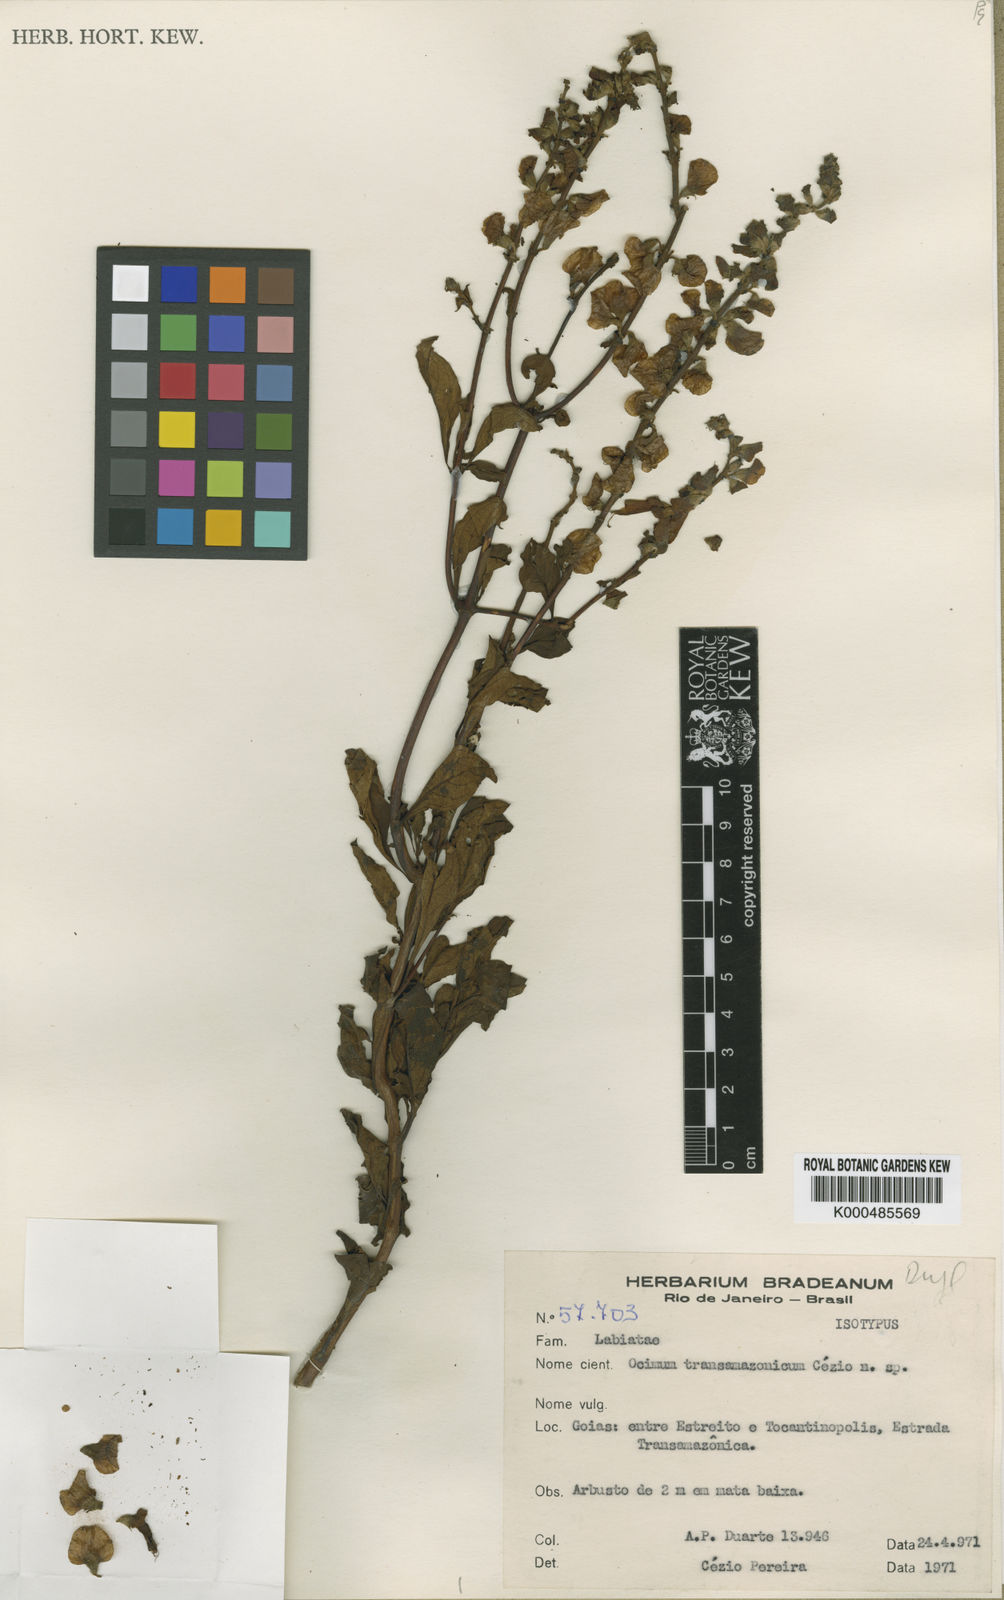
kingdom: Plantae
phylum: Tracheophyta
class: Magnoliopsida
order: Lamiales
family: Lamiaceae
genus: Ocimum
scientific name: Ocimum transamazonicum
